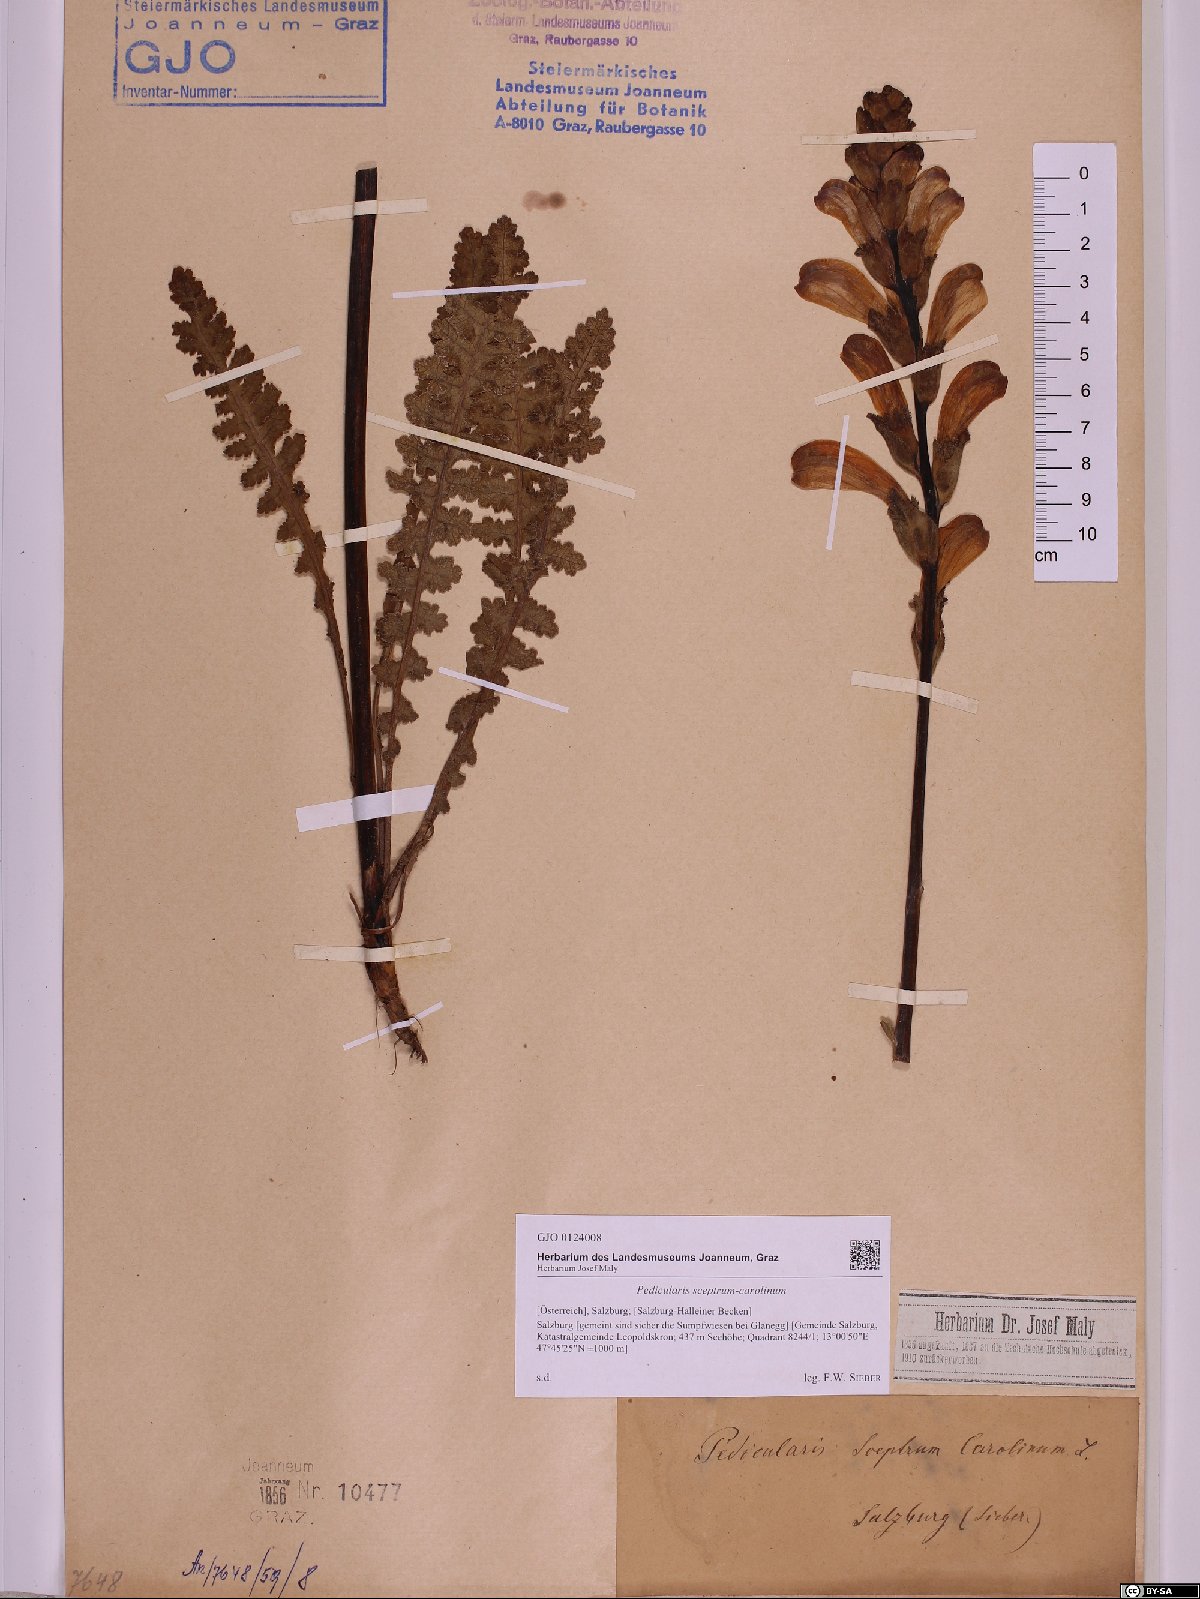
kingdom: Plantae
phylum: Tracheophyta
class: Magnoliopsida
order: Lamiales
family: Orobanchaceae
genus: Pedicularis
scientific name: Pedicularis sceptrum-carolinum
